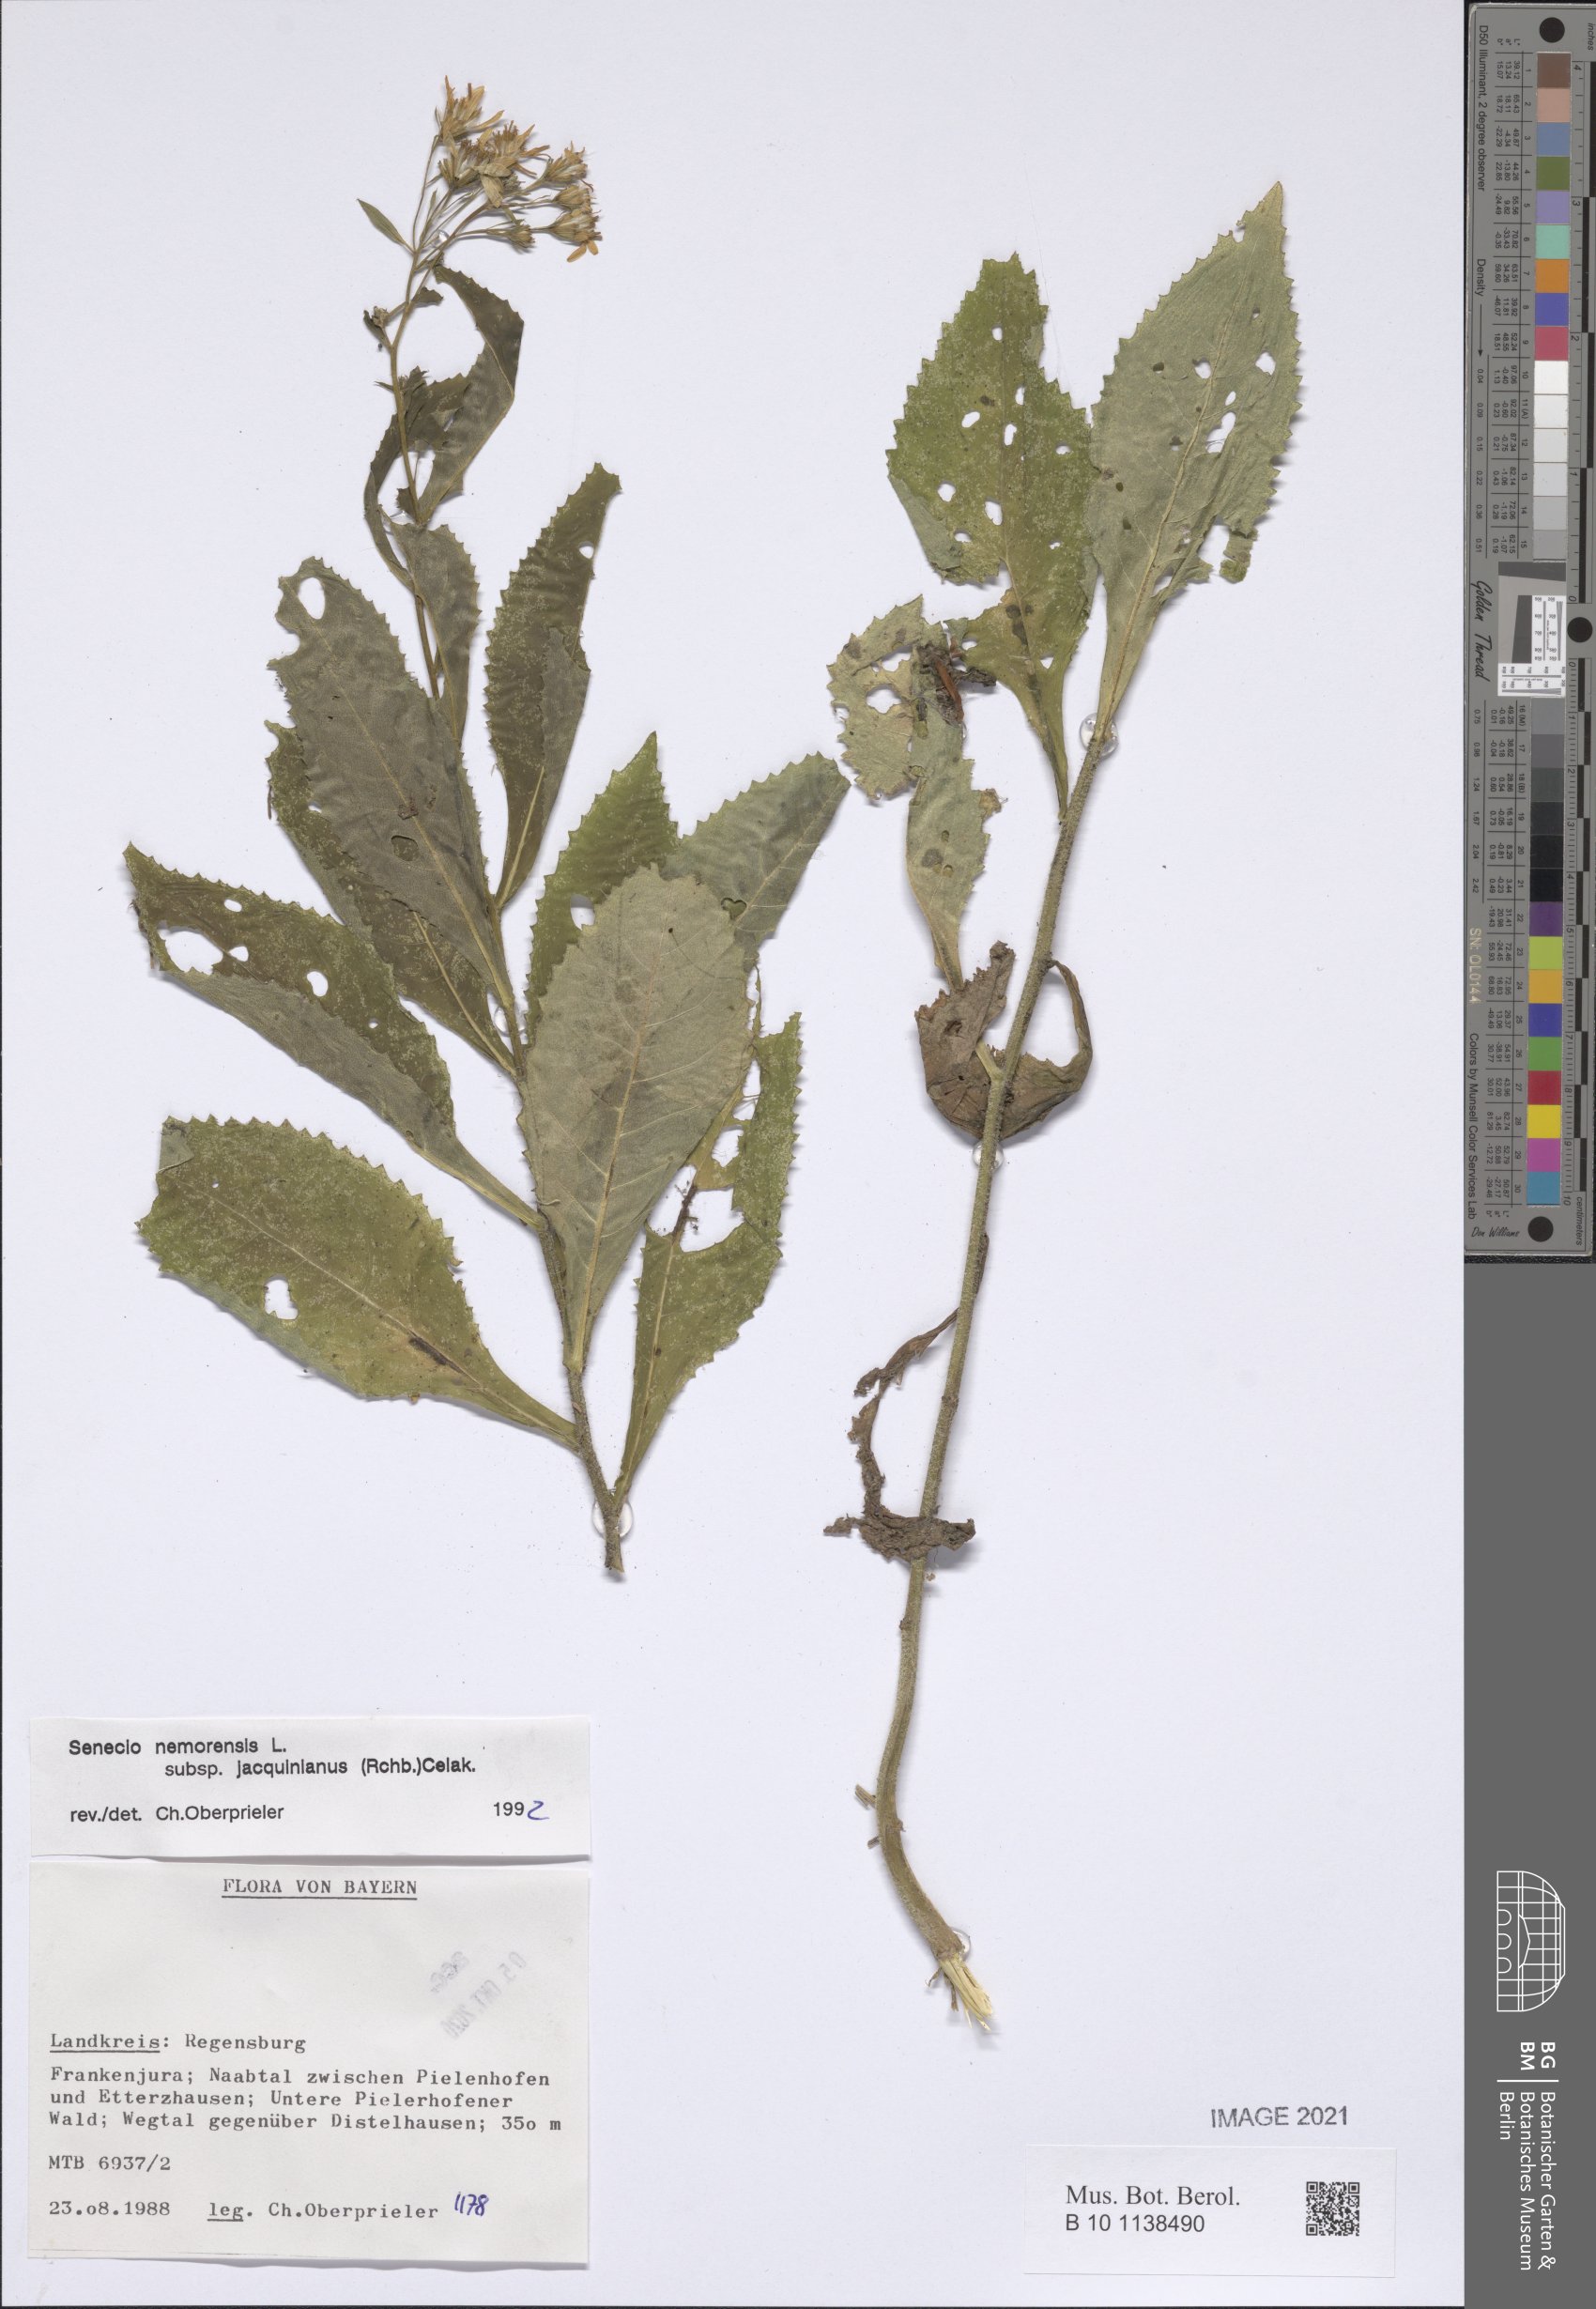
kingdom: Plantae
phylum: Tracheophyta
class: Magnoliopsida
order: Asterales
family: Asteraceae
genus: Senecio
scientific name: Senecio germanicus
